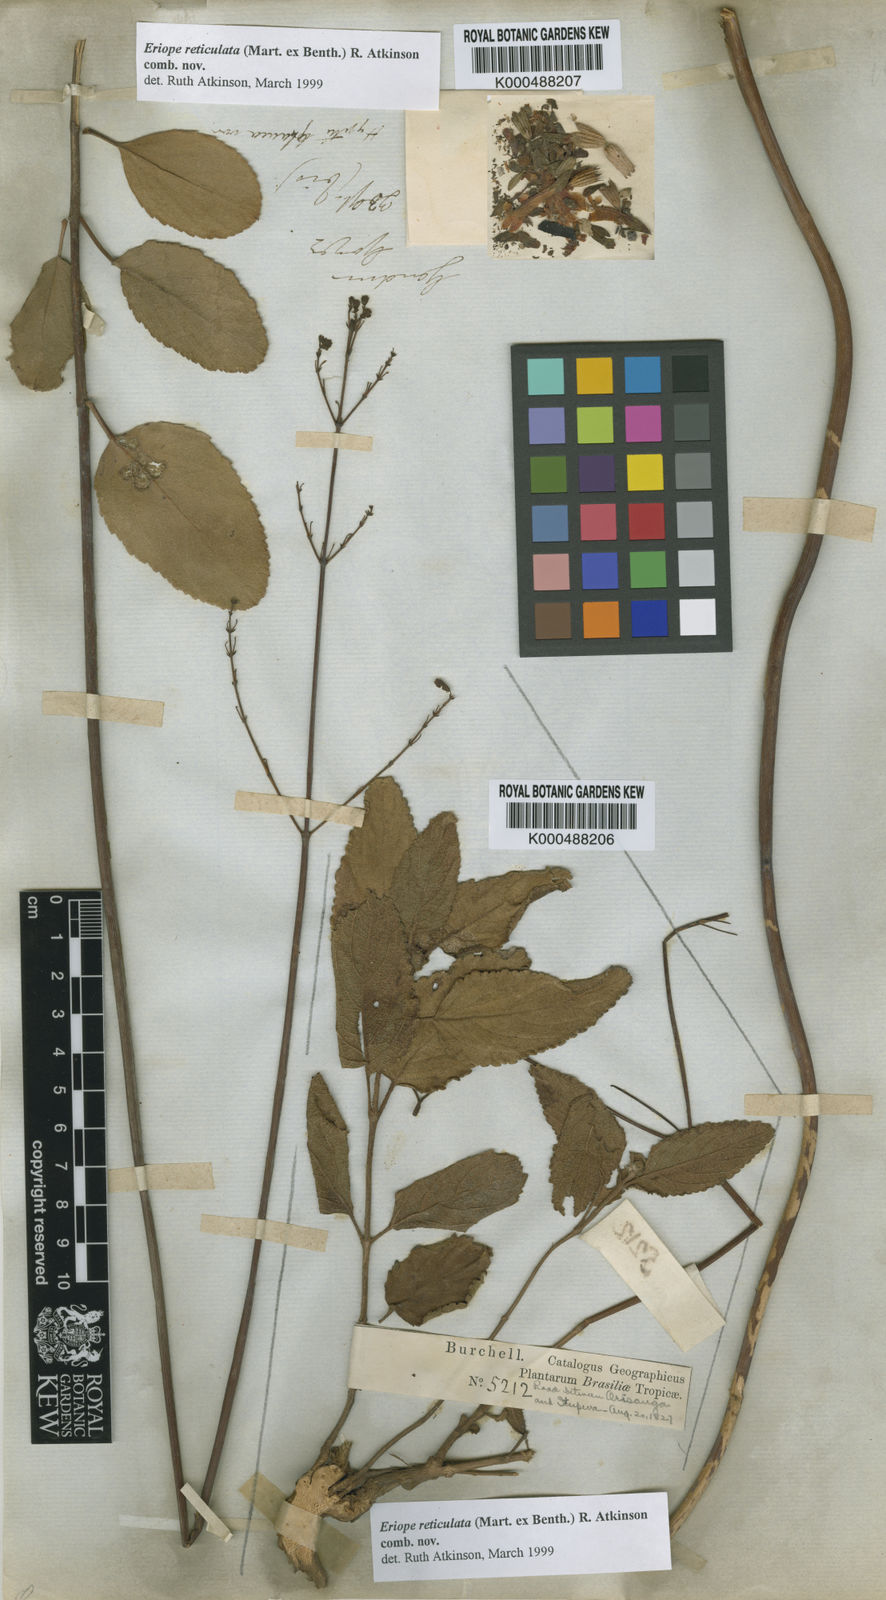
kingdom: Plantae
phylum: Tracheophyta
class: Magnoliopsida
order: Lamiales
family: Lamiaceae
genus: Hypenia
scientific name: Hypenia reticulata
